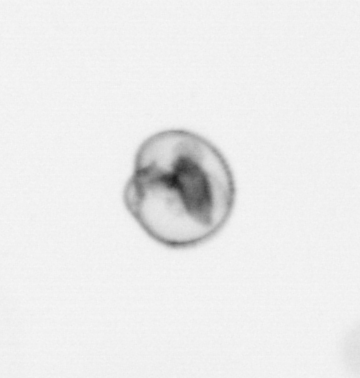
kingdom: Chromista
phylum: Myzozoa
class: Dinophyceae
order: Noctilucales
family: Noctilucaceae
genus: Noctiluca
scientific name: Noctiluca scintillans
